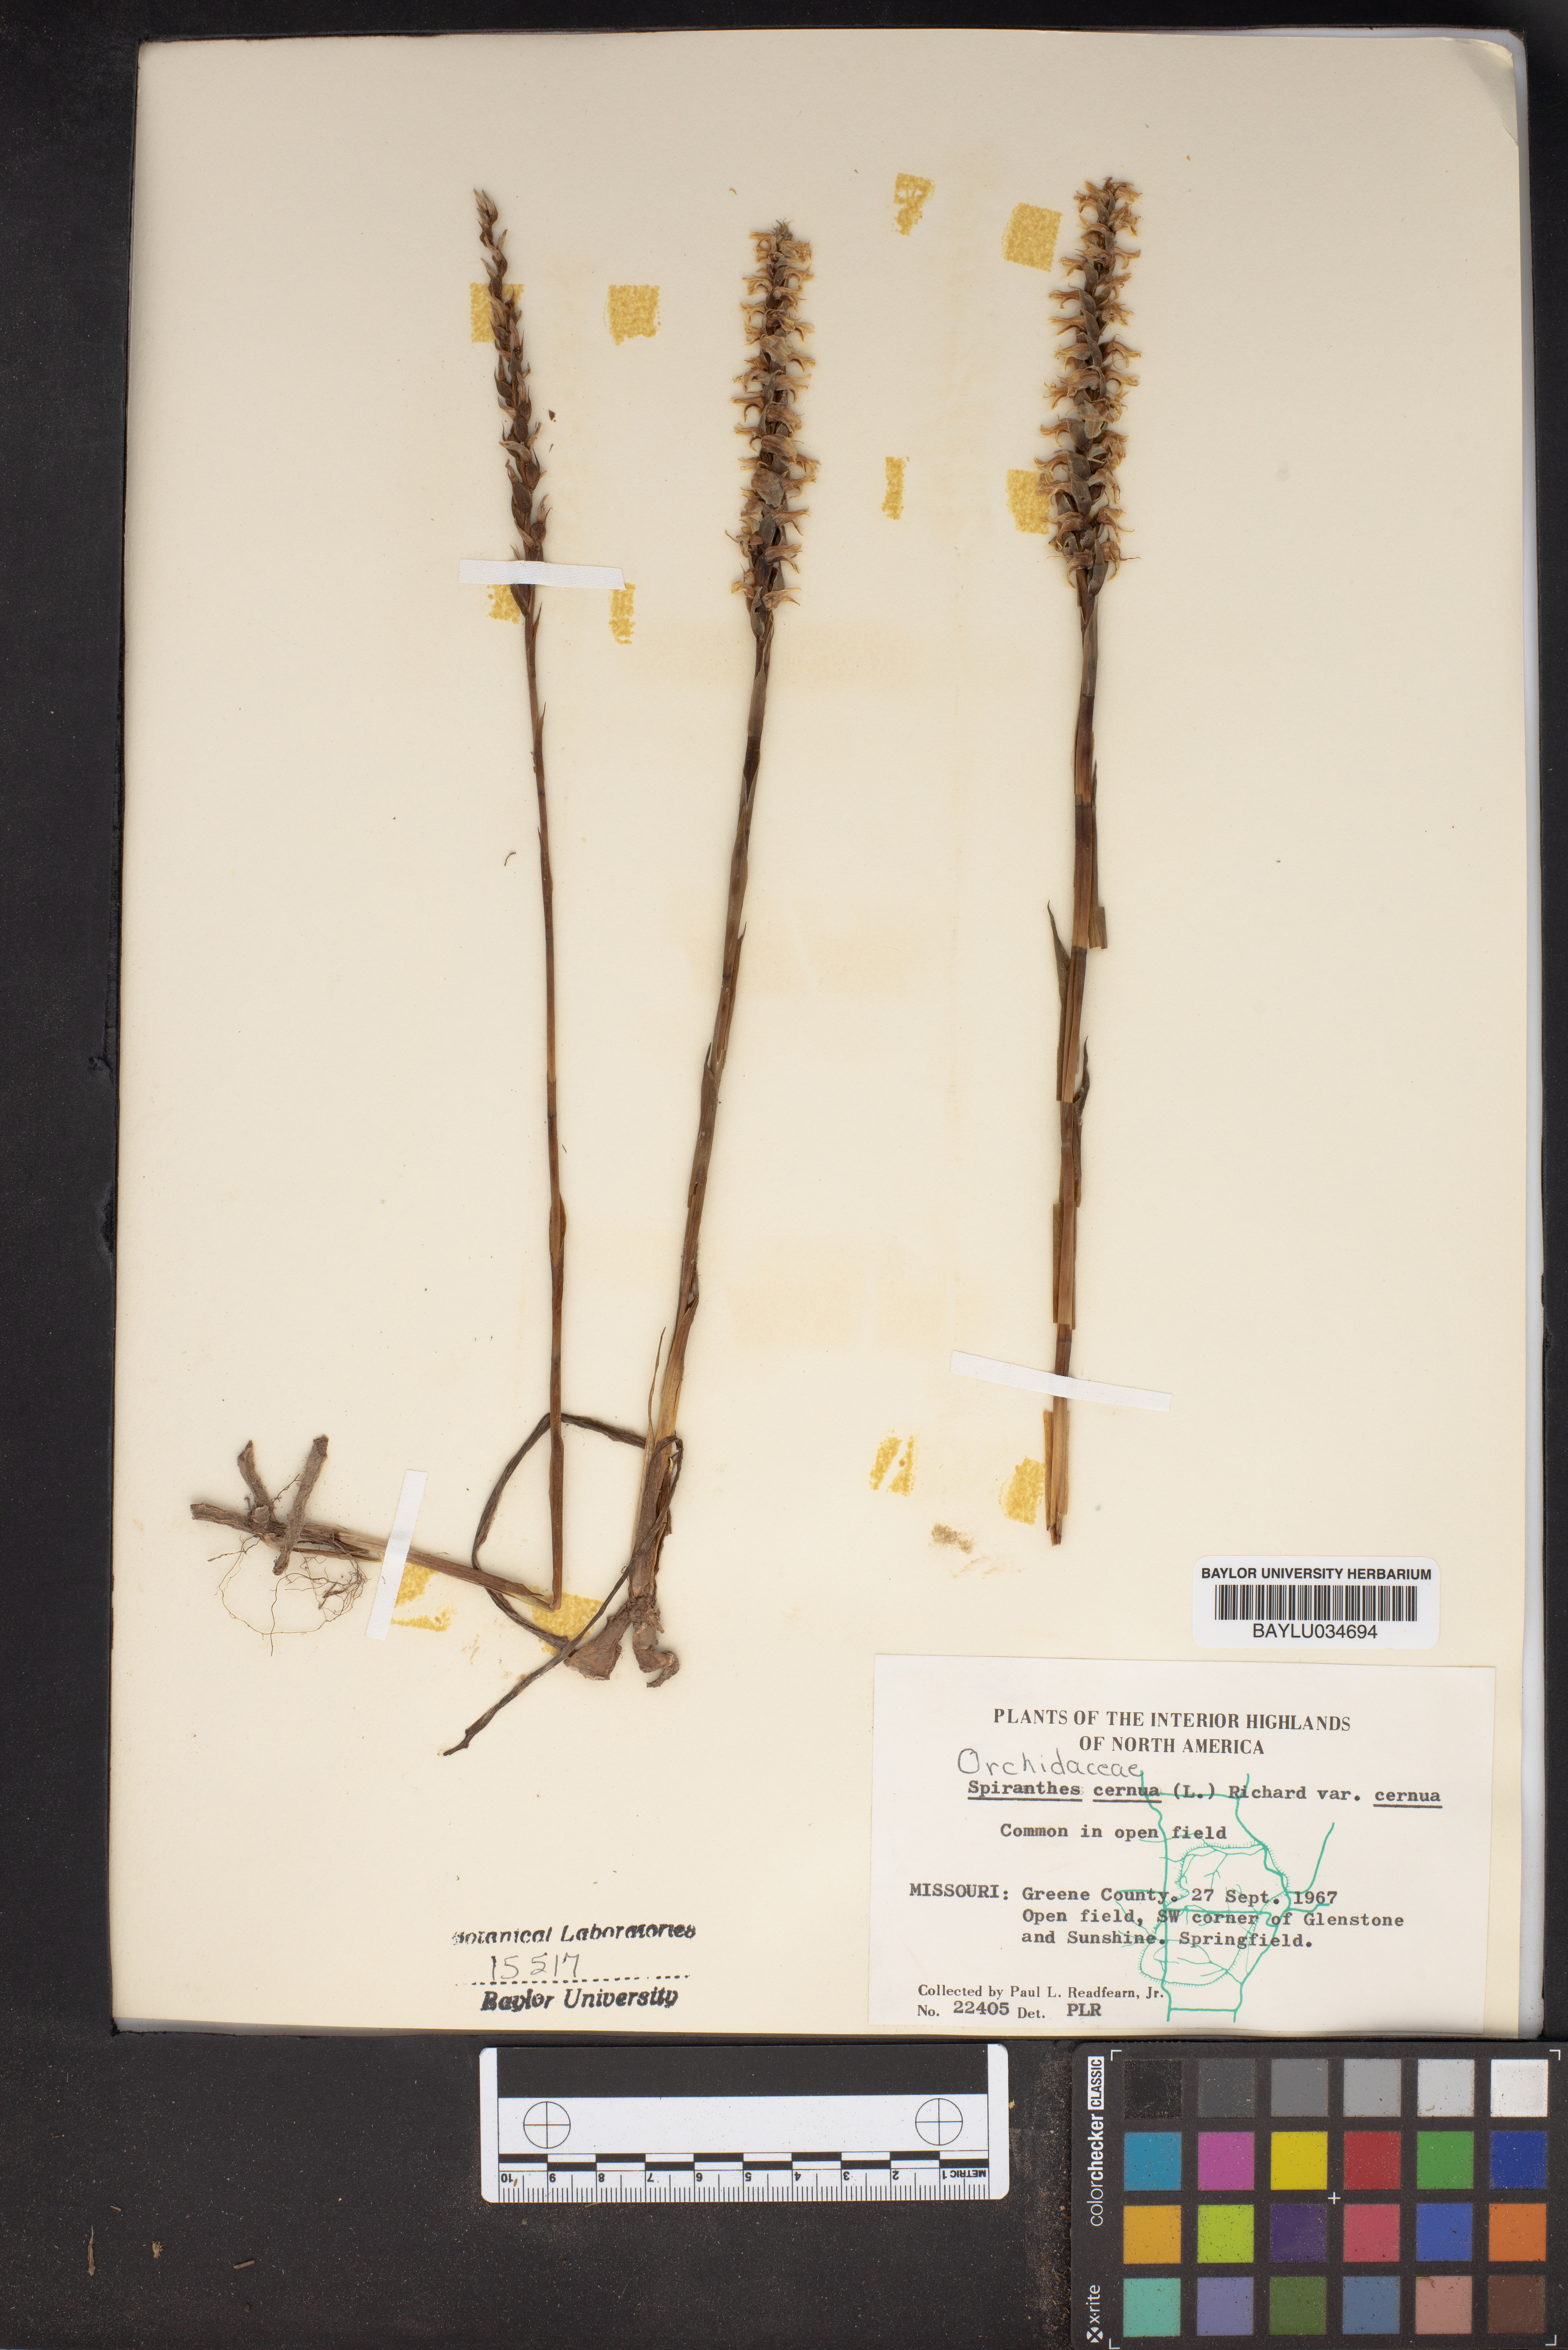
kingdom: Plantae
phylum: Tracheophyta
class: Liliopsida
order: Asparagales
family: Orchidaceae
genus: Spiranthes
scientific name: Spiranthes cernua
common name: Dropping ladies'-tresses
